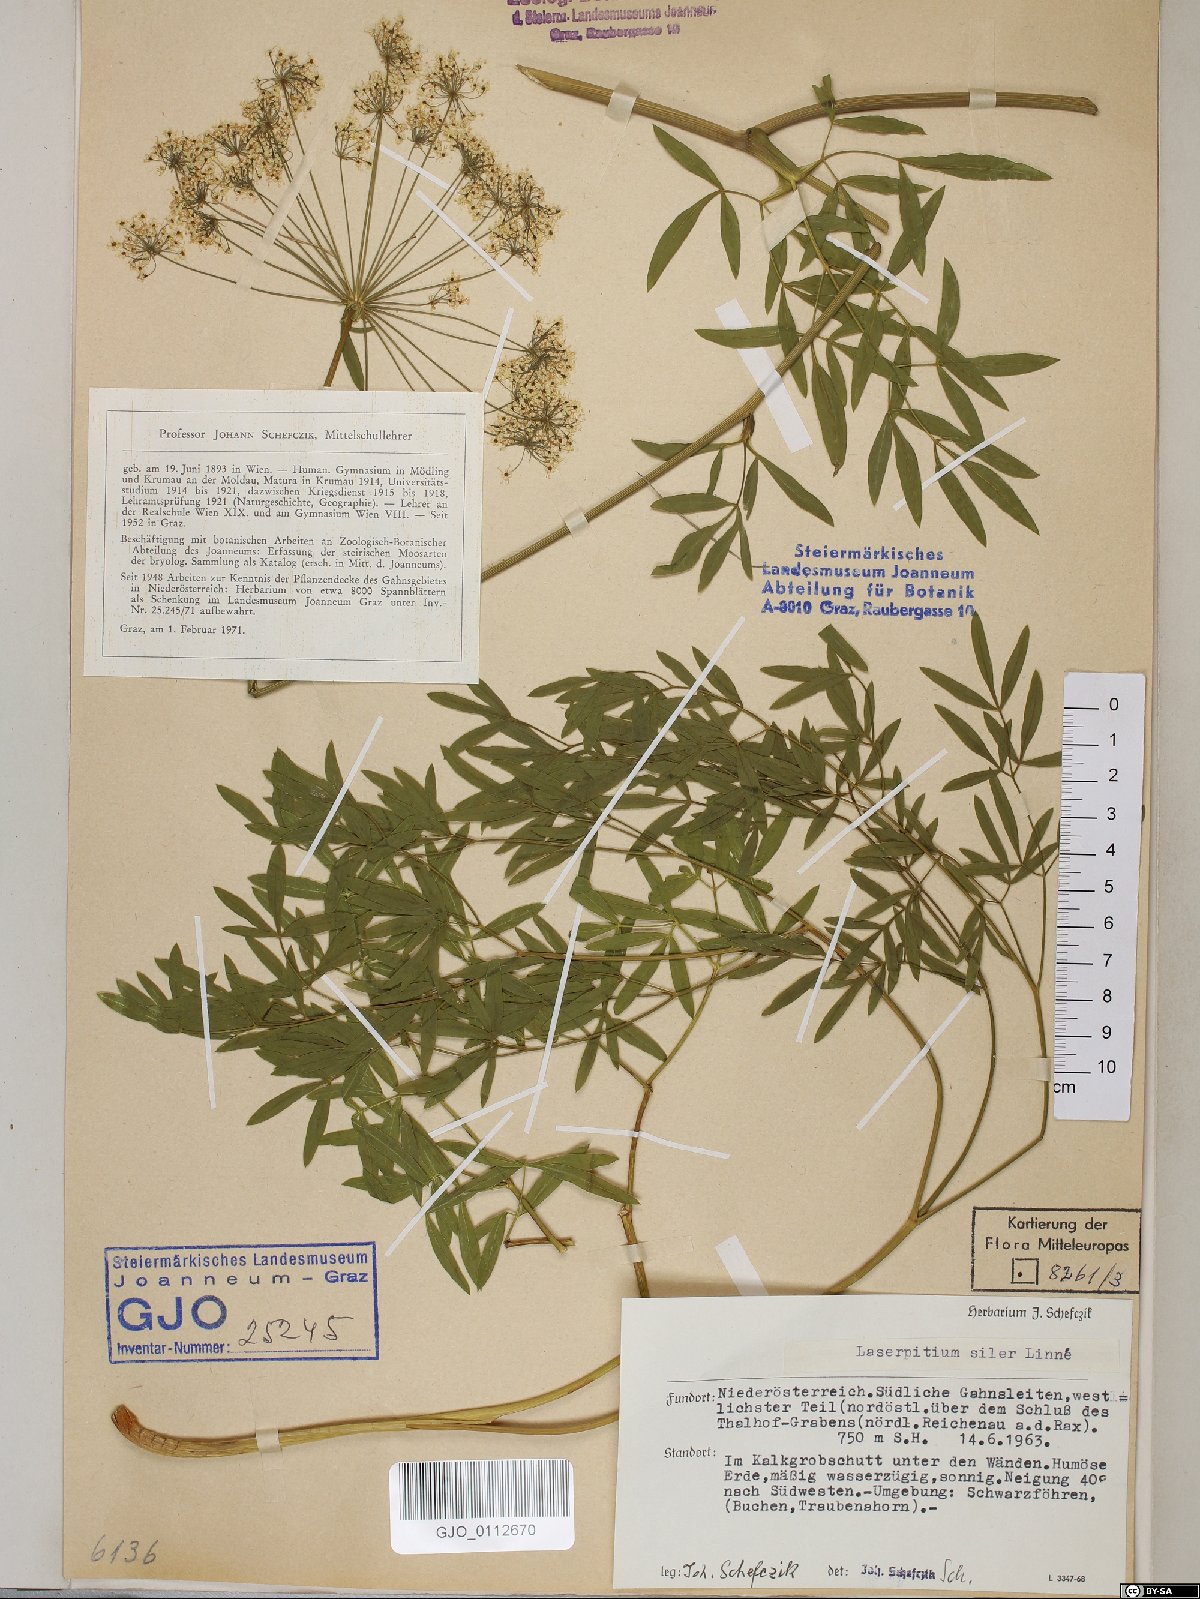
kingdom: Plantae
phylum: Tracheophyta
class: Magnoliopsida
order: Apiales
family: Apiaceae
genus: Siler
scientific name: Siler montanum
